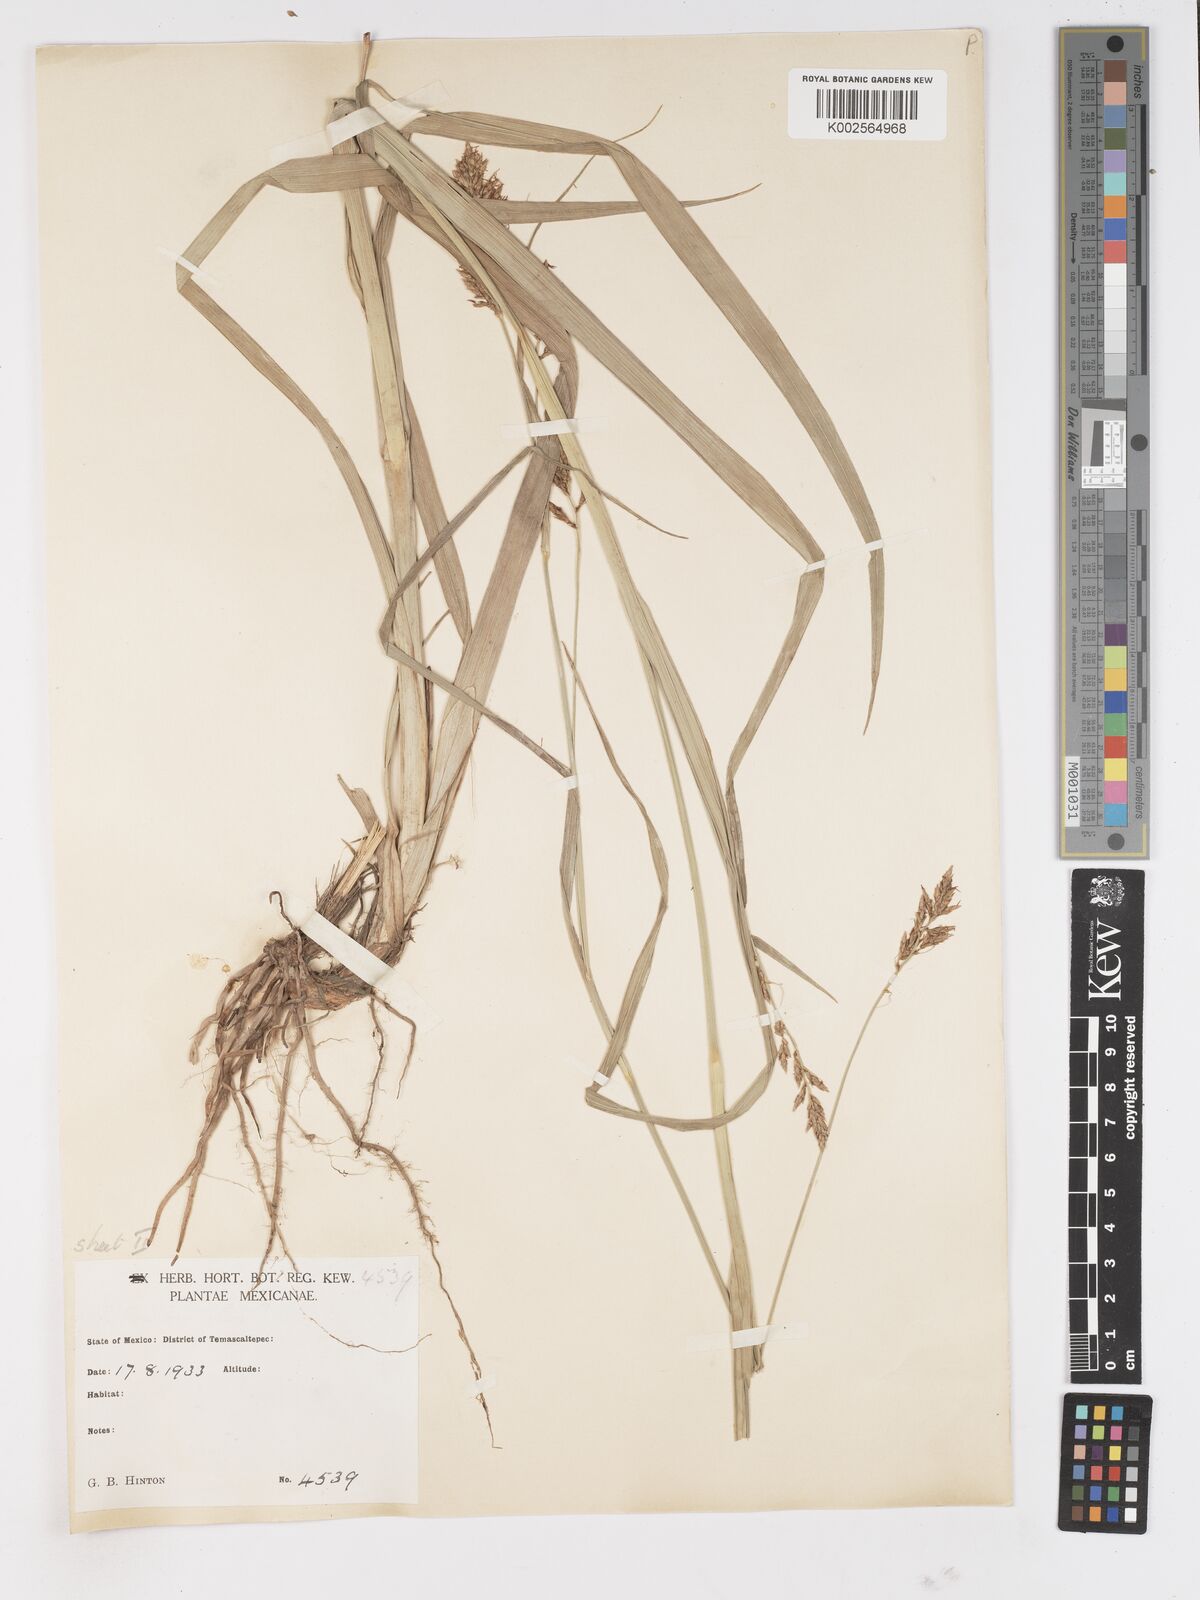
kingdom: Plantae
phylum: Tracheophyta
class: Liliopsida
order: Poales
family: Cyperaceae
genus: Carex
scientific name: Carex
